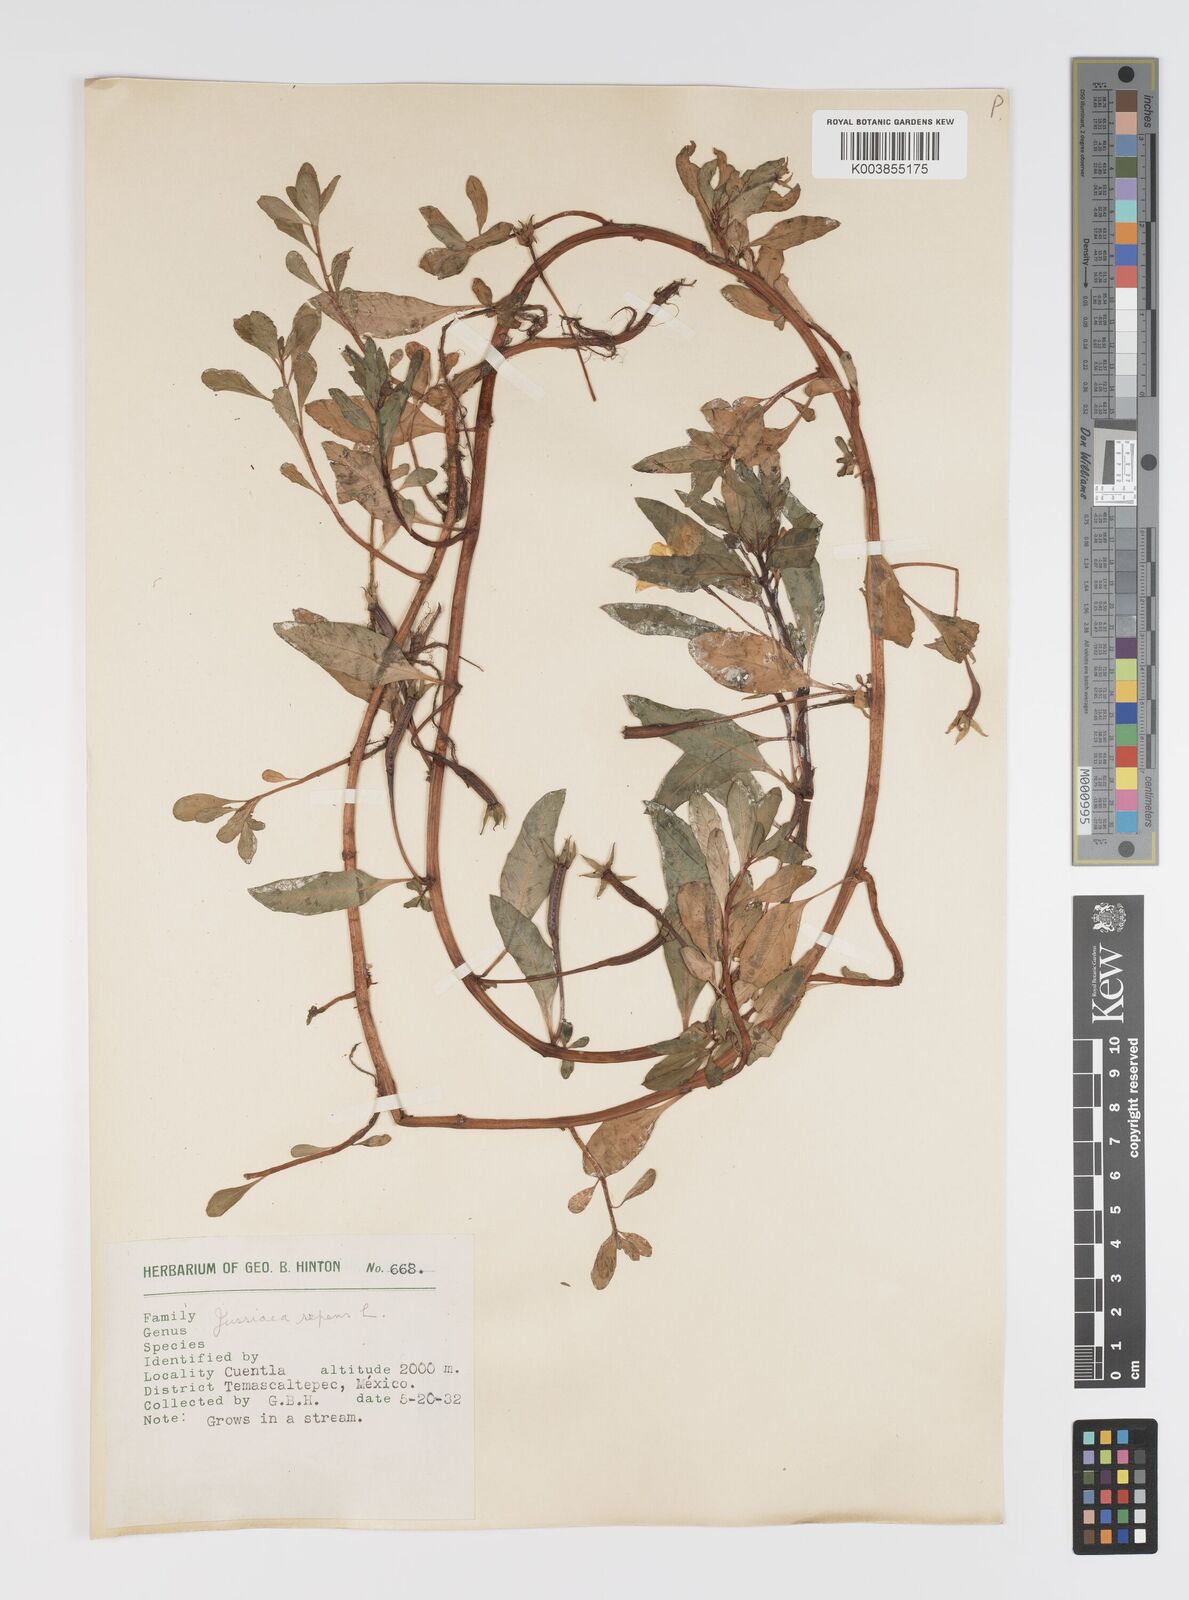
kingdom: Plantae
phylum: Tracheophyta
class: Magnoliopsida
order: Myrtales
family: Onagraceae
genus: Ludwigia
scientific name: Ludwigia peploides
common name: Floating primrose-willow
